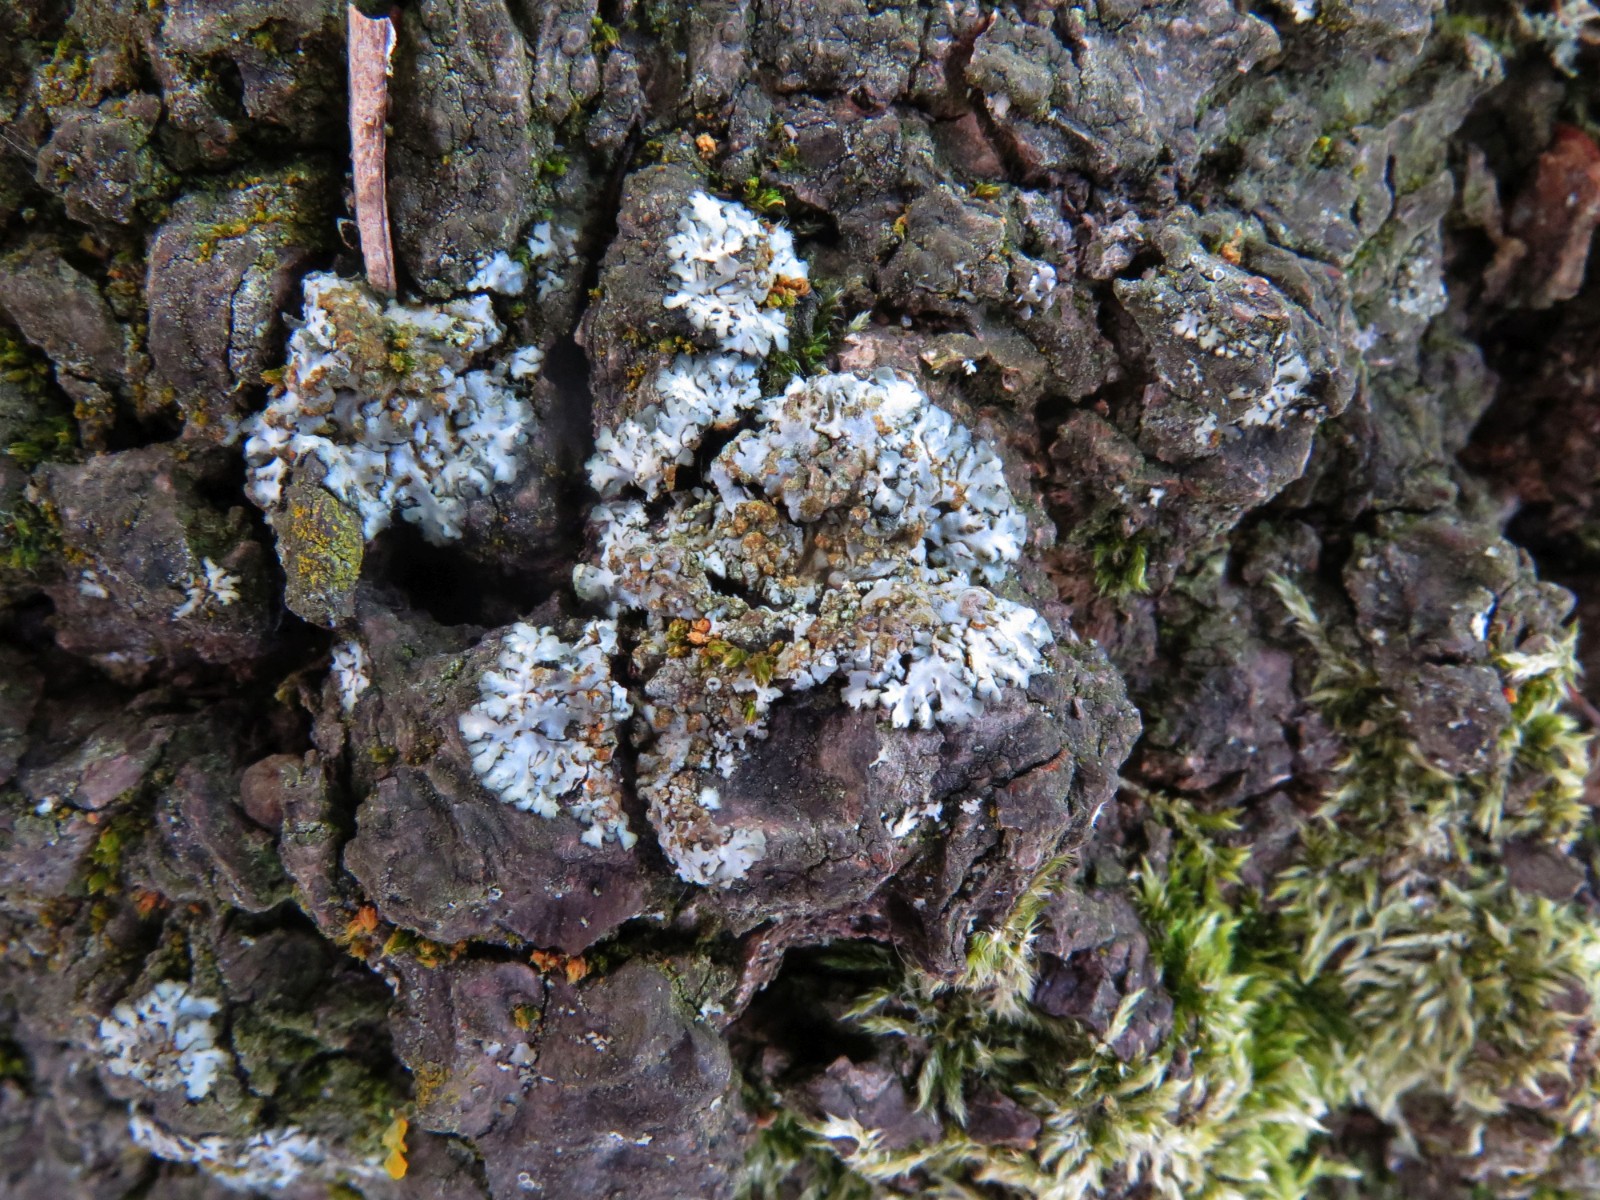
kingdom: Fungi
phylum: Ascomycota
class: Lecanoromycetes
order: Caliciales
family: Physciaceae
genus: Phaeophyscia
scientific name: Phaeophyscia orbicularis
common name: grågrøn rosetlav
